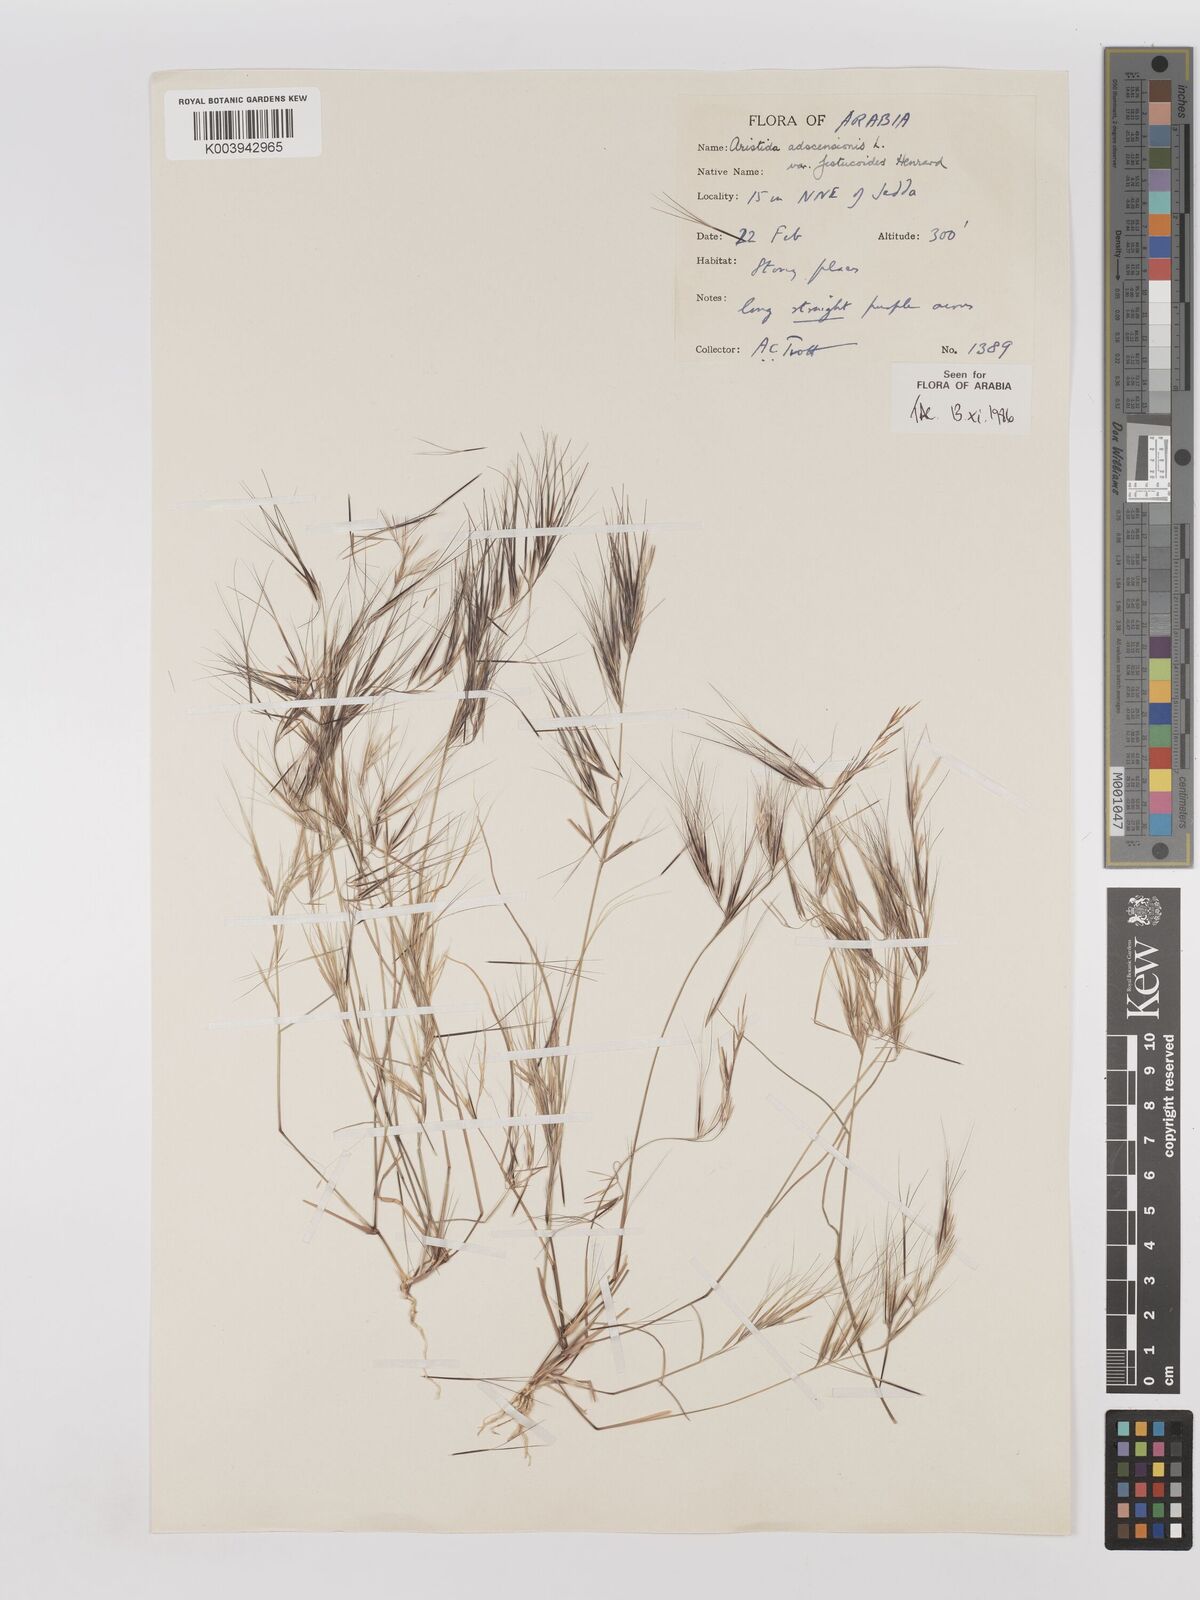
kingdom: Plantae
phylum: Tracheophyta
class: Liliopsida
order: Poales
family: Poaceae
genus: Aristida
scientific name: Aristida adscensionis
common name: Sixweeks threeawn
